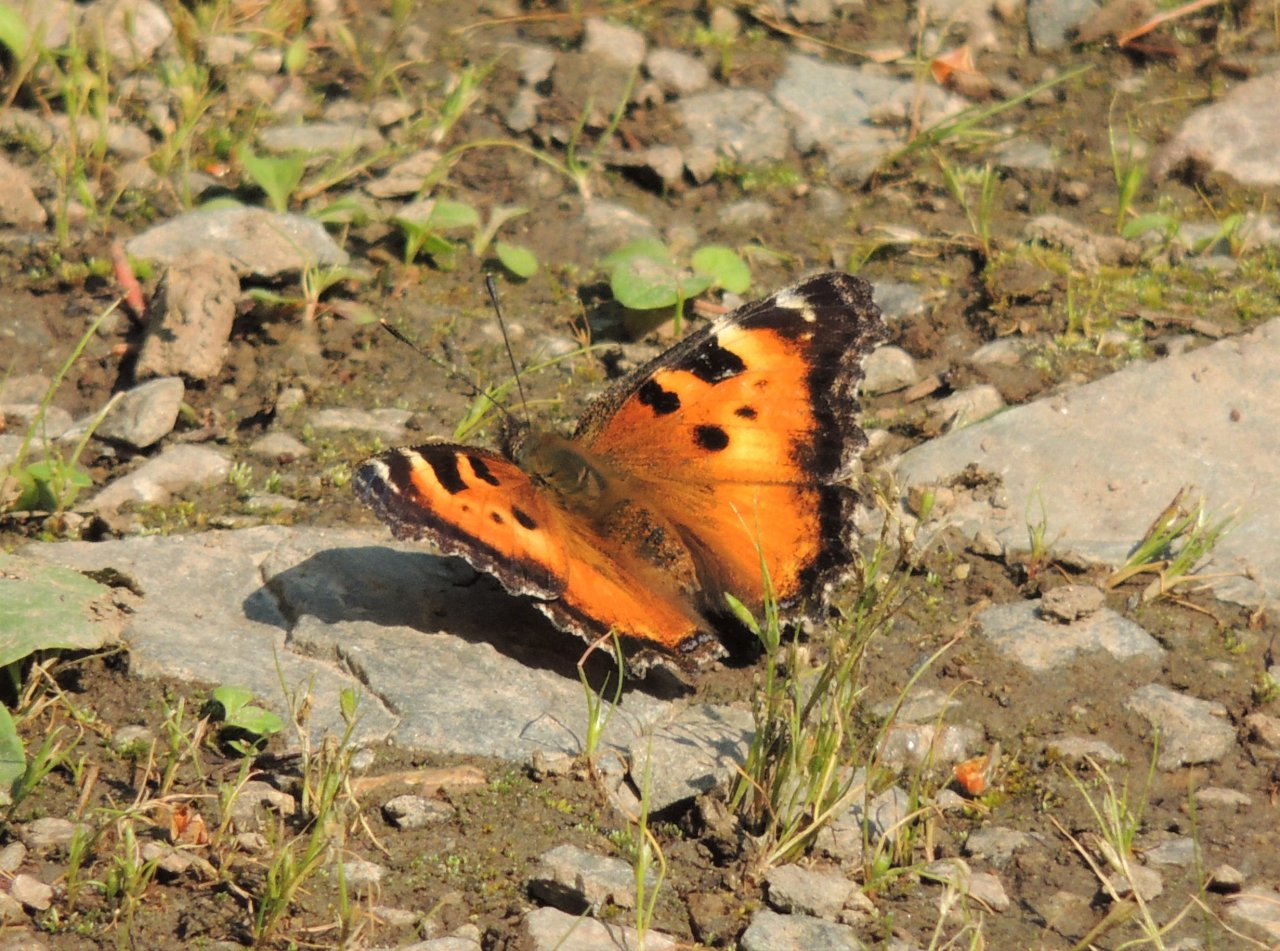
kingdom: Animalia
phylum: Arthropoda
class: Insecta
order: Lepidoptera
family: Nymphalidae
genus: Nymphalis
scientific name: Nymphalis californica
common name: California Tortoiseshell
